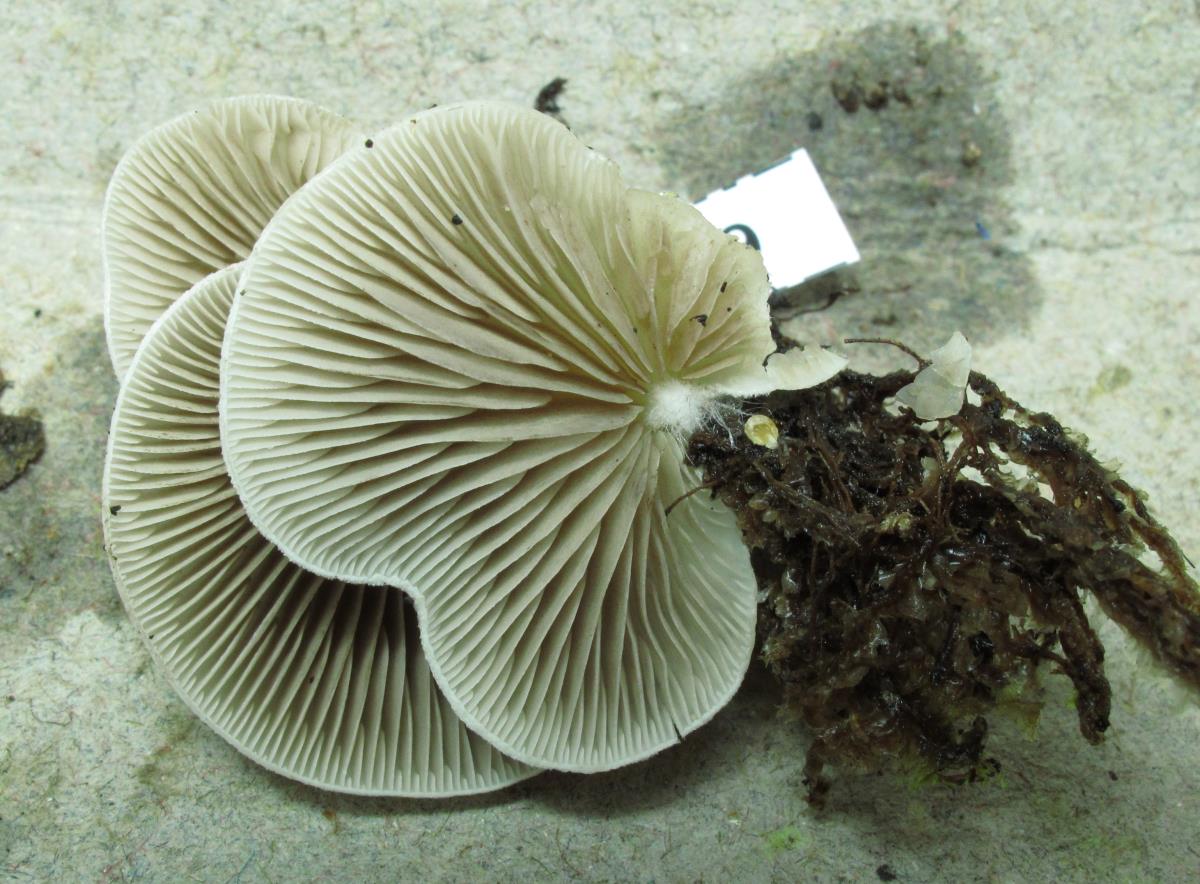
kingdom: Fungi
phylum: Basidiomycota
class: Agaricomycetes
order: Agaricales
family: Crepidotaceae
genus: Crepidotus
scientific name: Crepidotus
